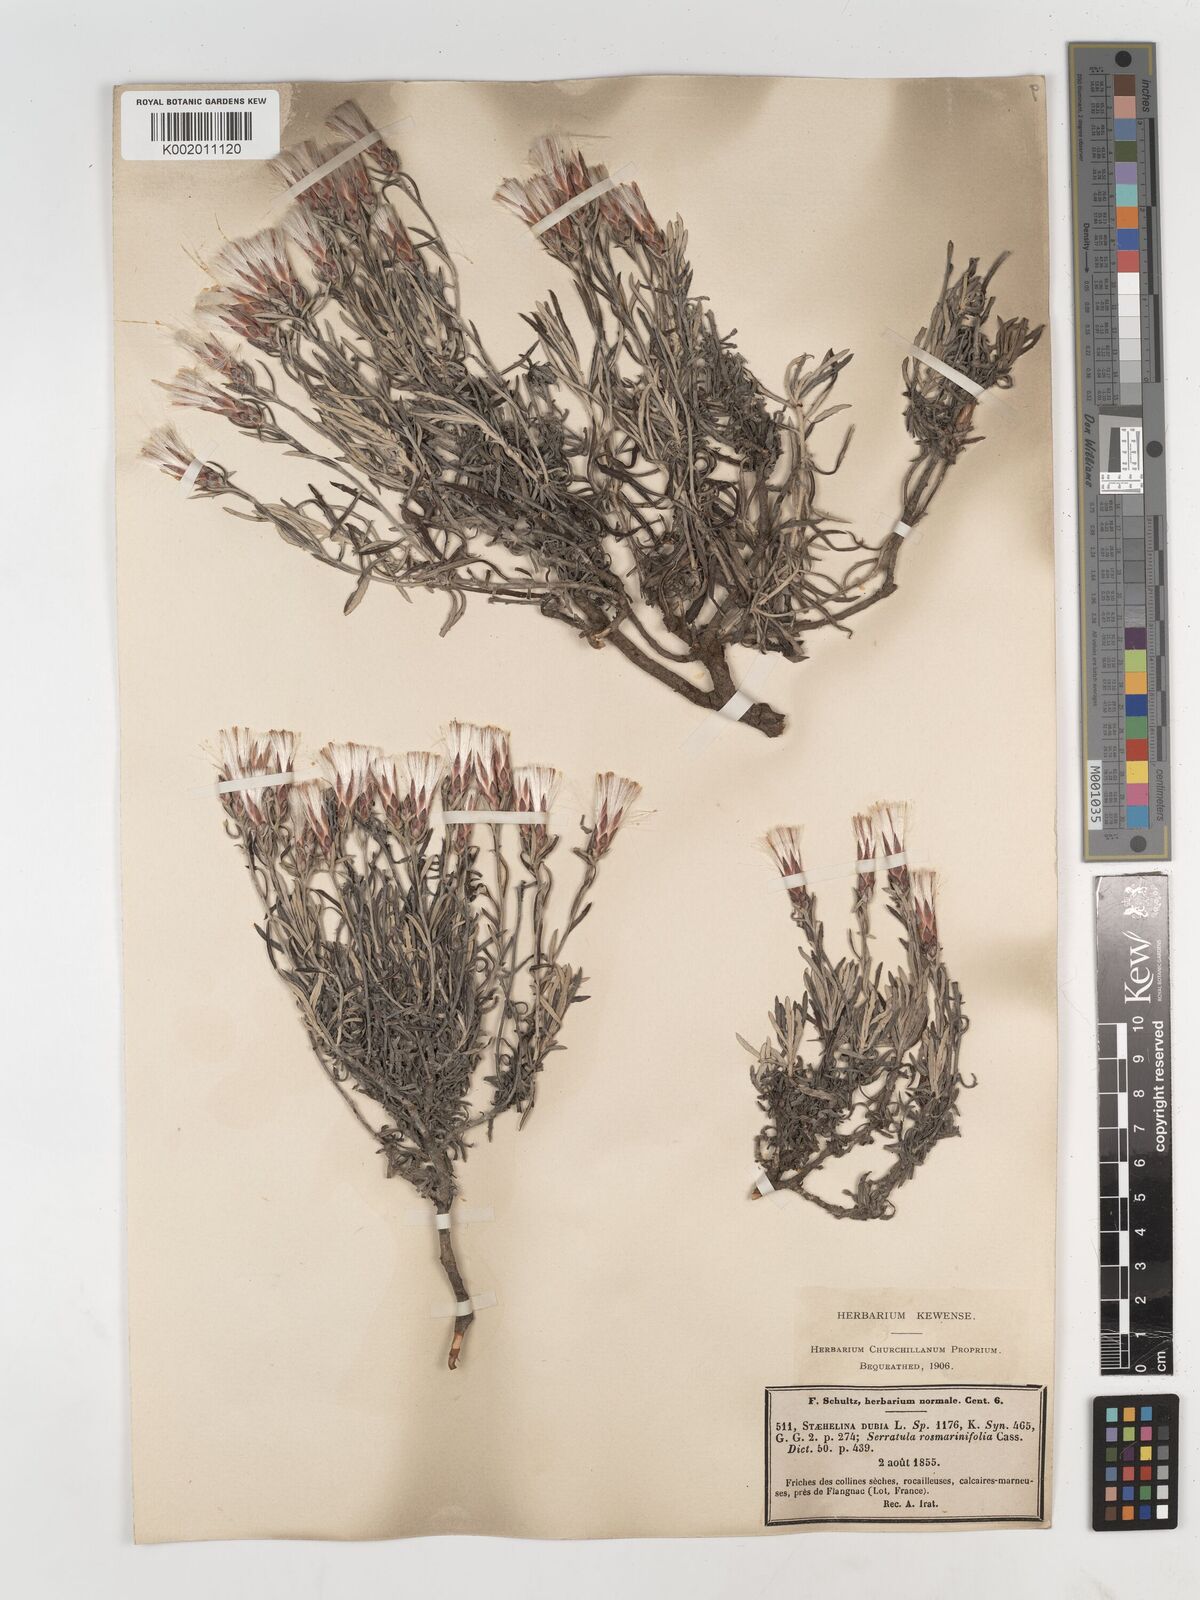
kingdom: Plantae
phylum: Tracheophyta
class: Magnoliopsida
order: Asterales
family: Asteraceae
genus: Staehelina
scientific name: Staehelina dubia
